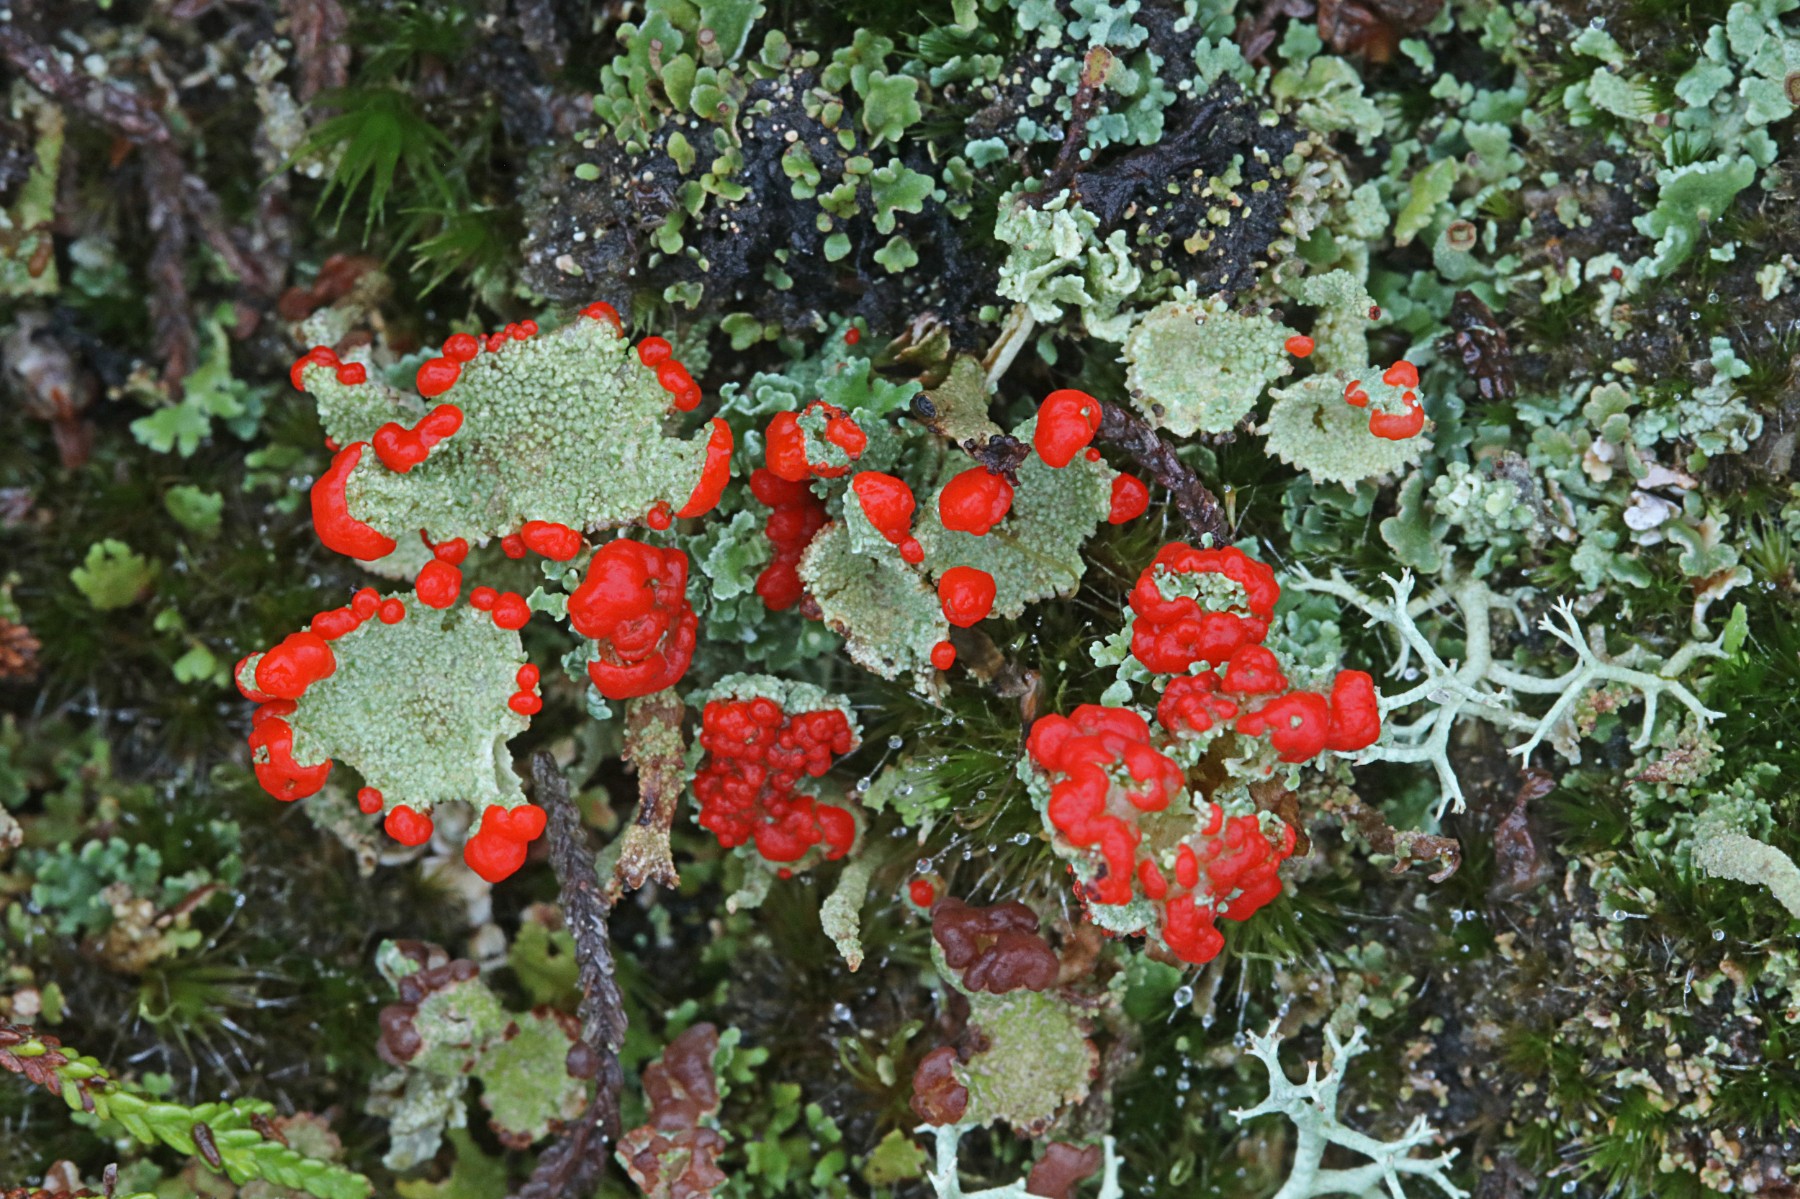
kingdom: Fungi
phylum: Ascomycota
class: Lecanoromycetes
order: Lecanorales
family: Cladoniaceae
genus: Cladonia
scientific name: Cladonia diversa
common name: rød bægerlav
